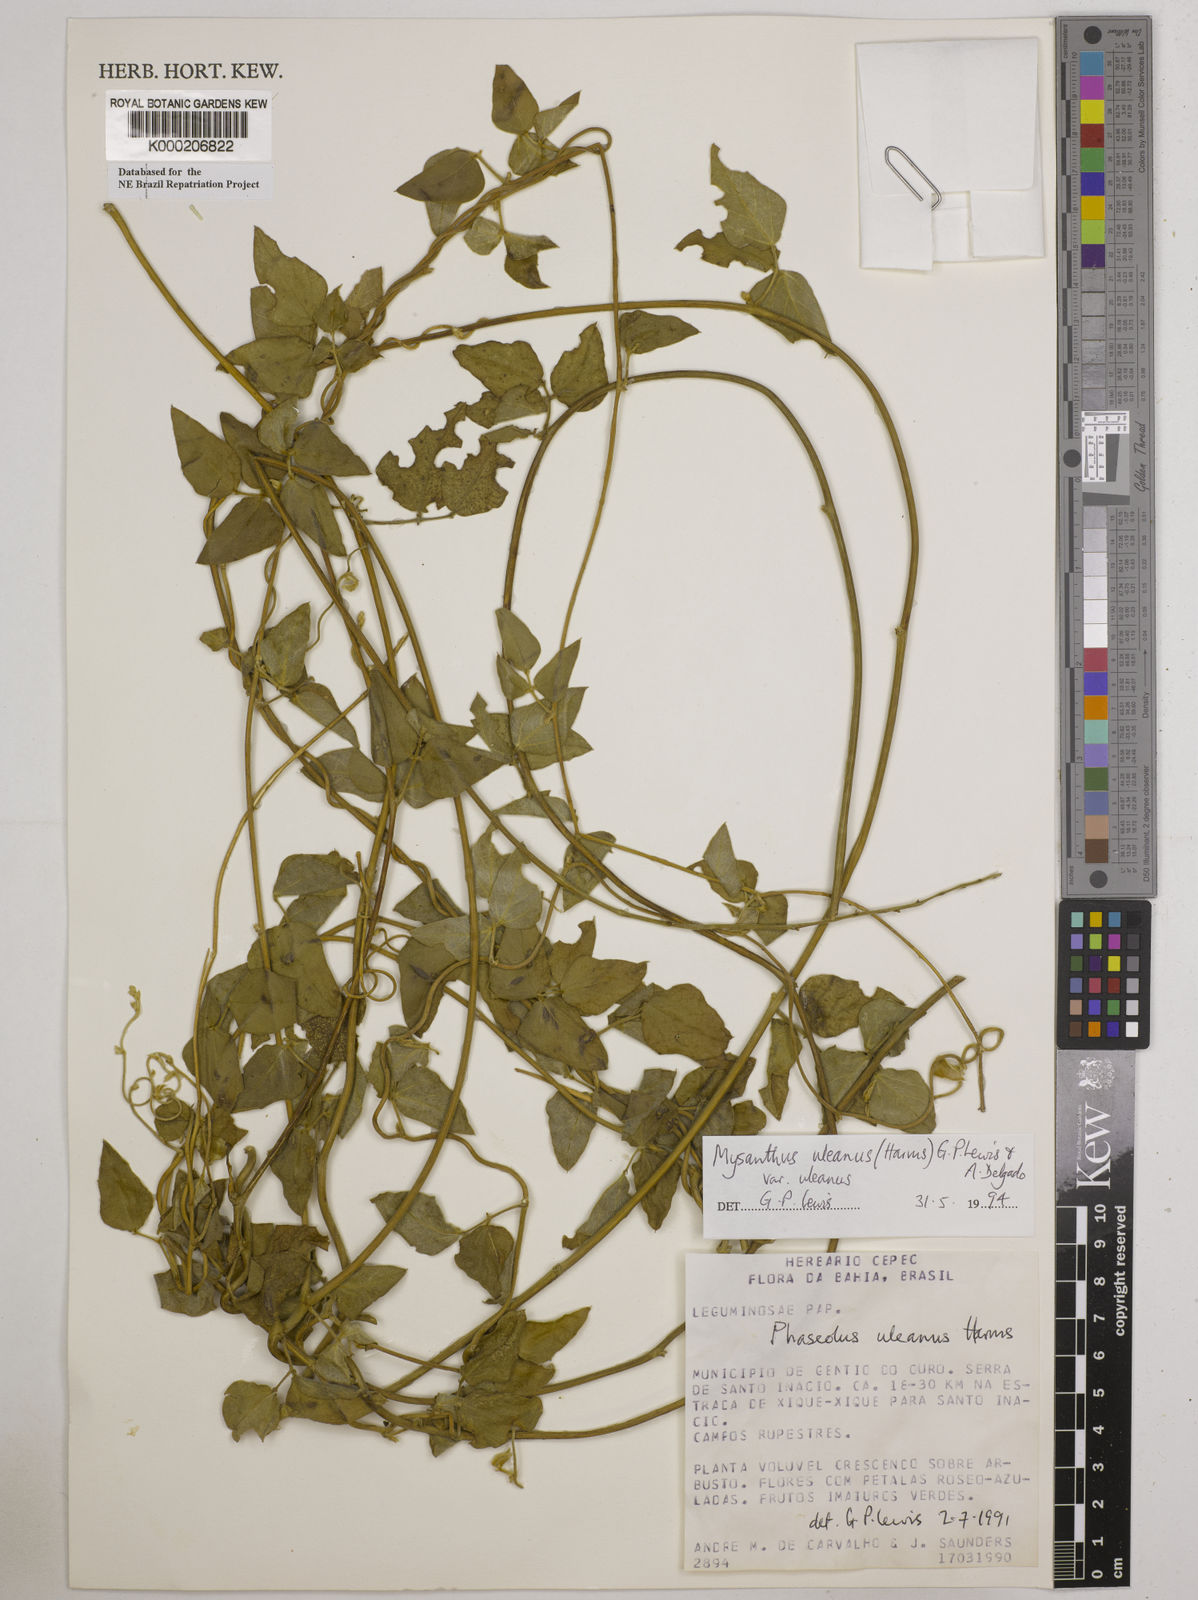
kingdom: Plantae
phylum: Tracheophyta
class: Magnoliopsida
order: Fabales
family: Fabaceae
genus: Mysanthus
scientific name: Mysanthus uleanus
